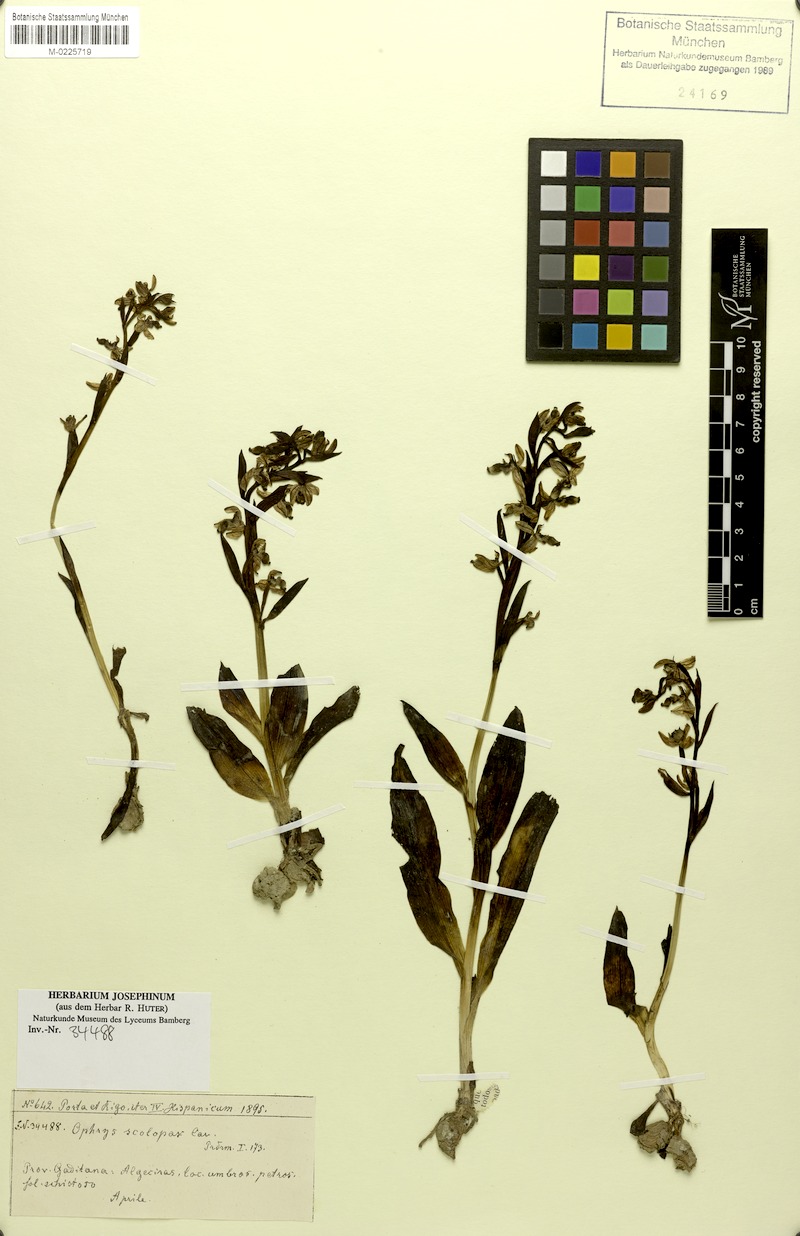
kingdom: Plantae
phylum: Tracheophyta
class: Liliopsida
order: Asparagales
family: Orchidaceae
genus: Ophrys
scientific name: Ophrys scolopax
